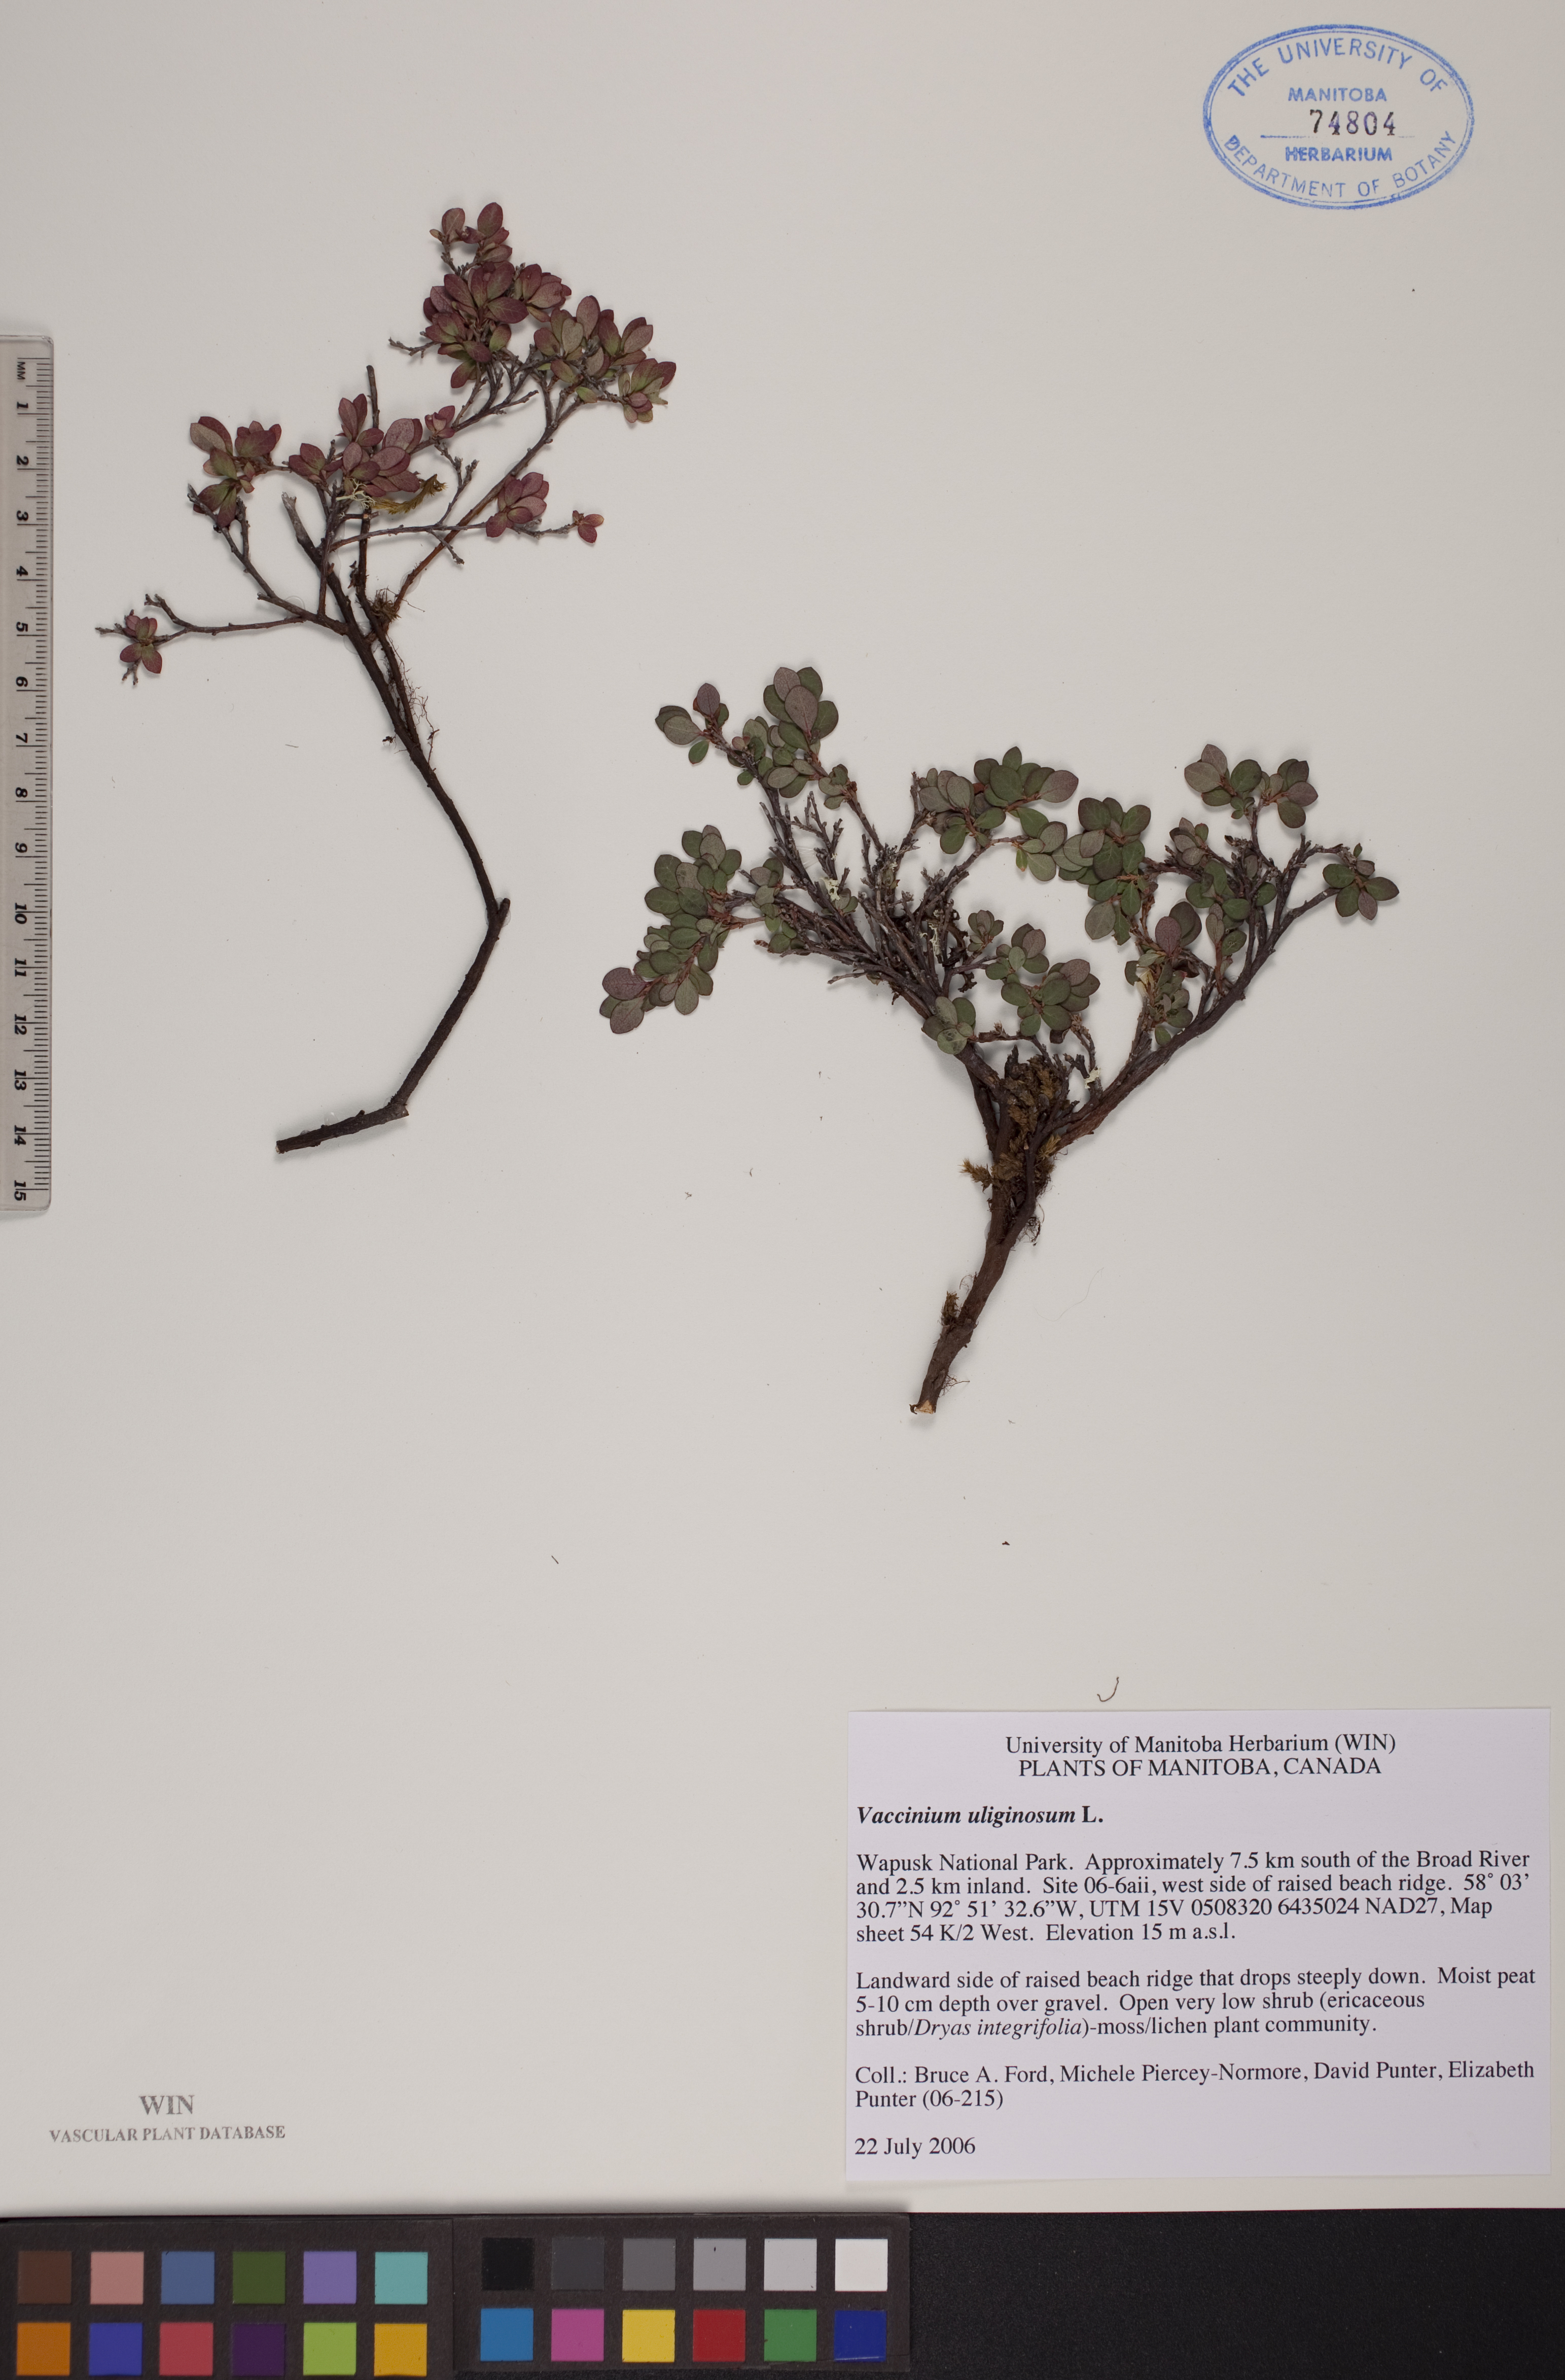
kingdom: Plantae
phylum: Tracheophyta
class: Magnoliopsida
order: Ericales
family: Ericaceae
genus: Vaccinium
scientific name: Vaccinium uliginosum
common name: Bog bilberry
